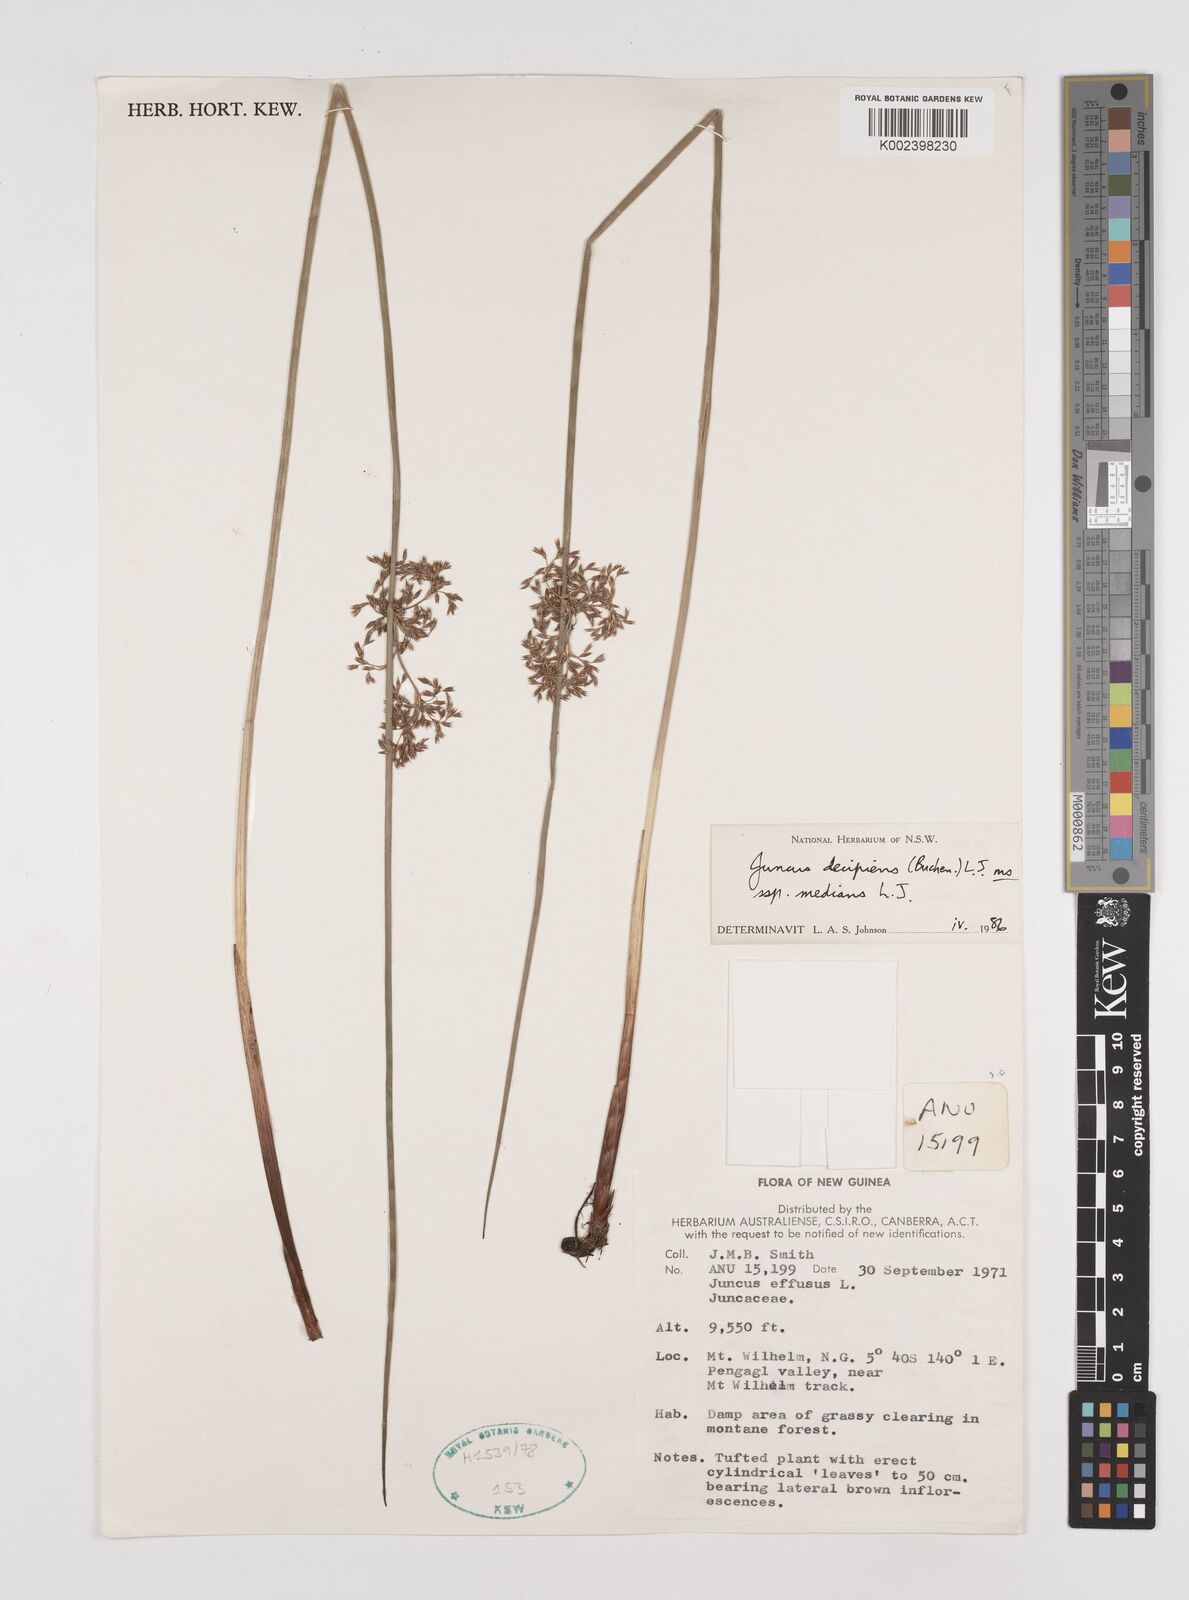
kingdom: Plantae
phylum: Tracheophyta
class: Liliopsida
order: Poales
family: Juncaceae
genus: Juncus
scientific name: Juncus decipiens
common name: Lamp rush
